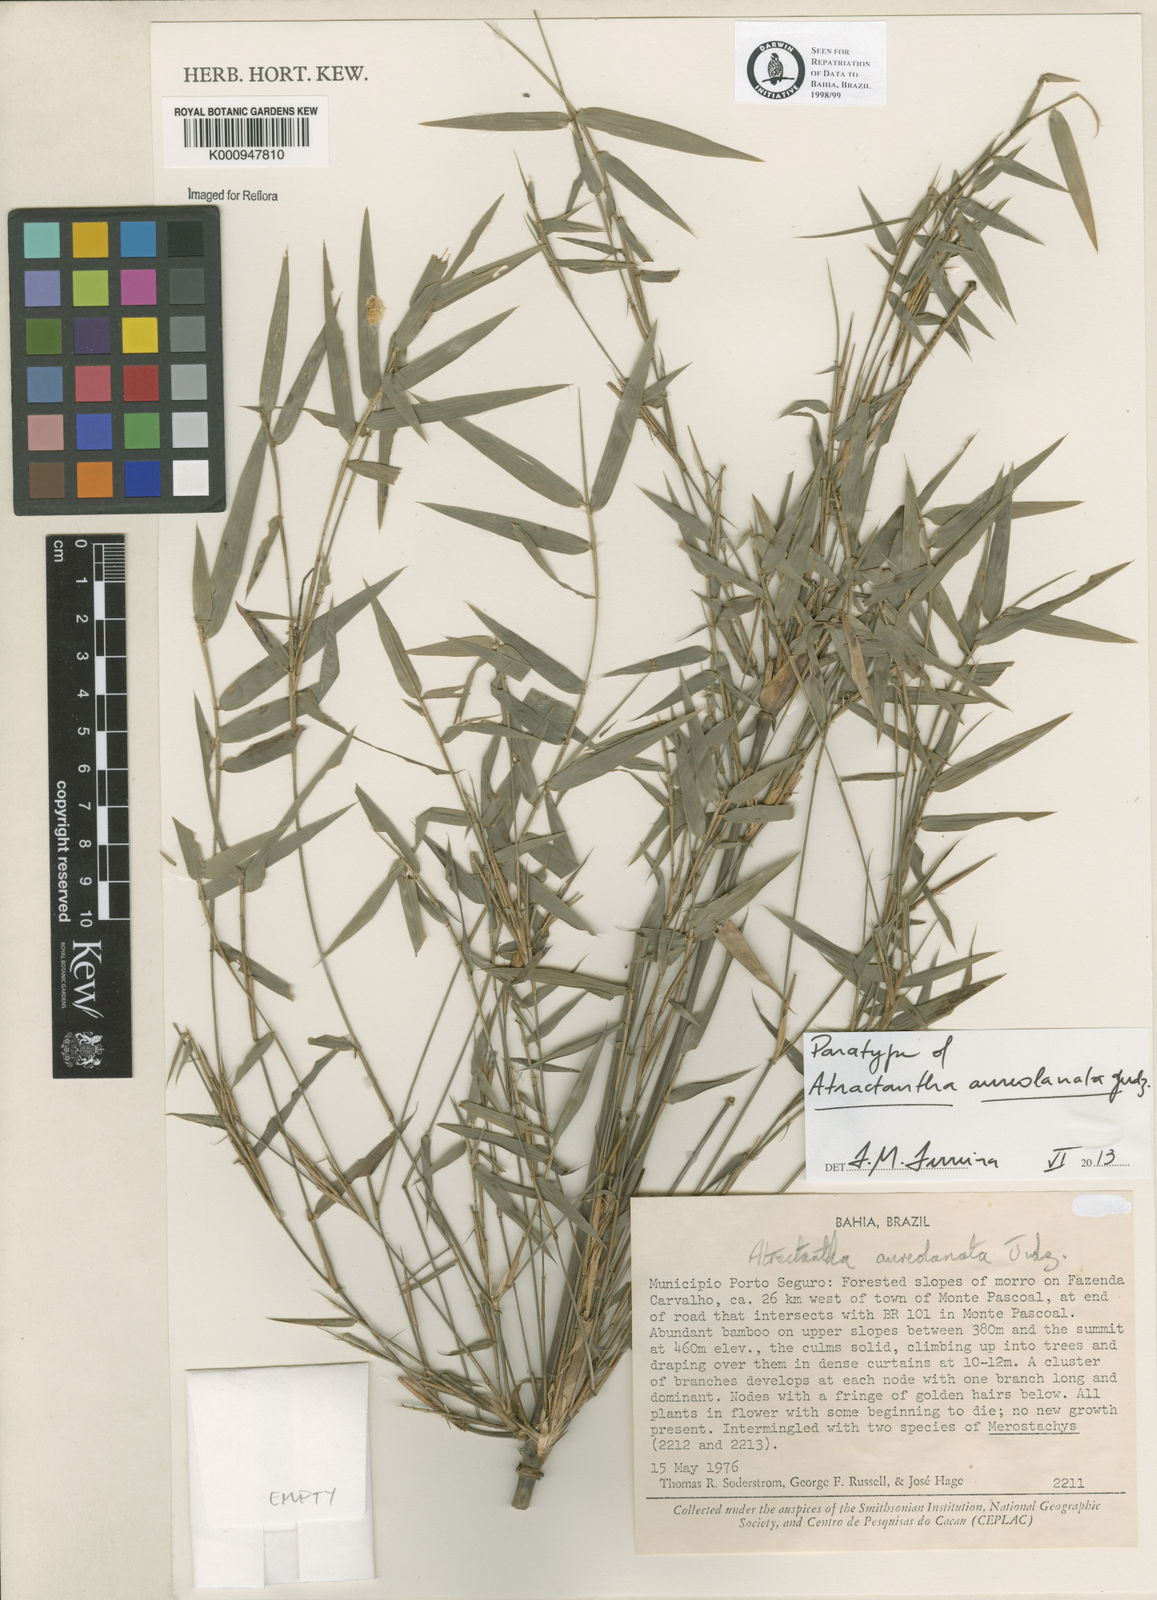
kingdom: Plantae
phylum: Tracheophyta
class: Liliopsida
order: Poales
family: Poaceae
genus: Atractantha
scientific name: Atractantha aureolanata
